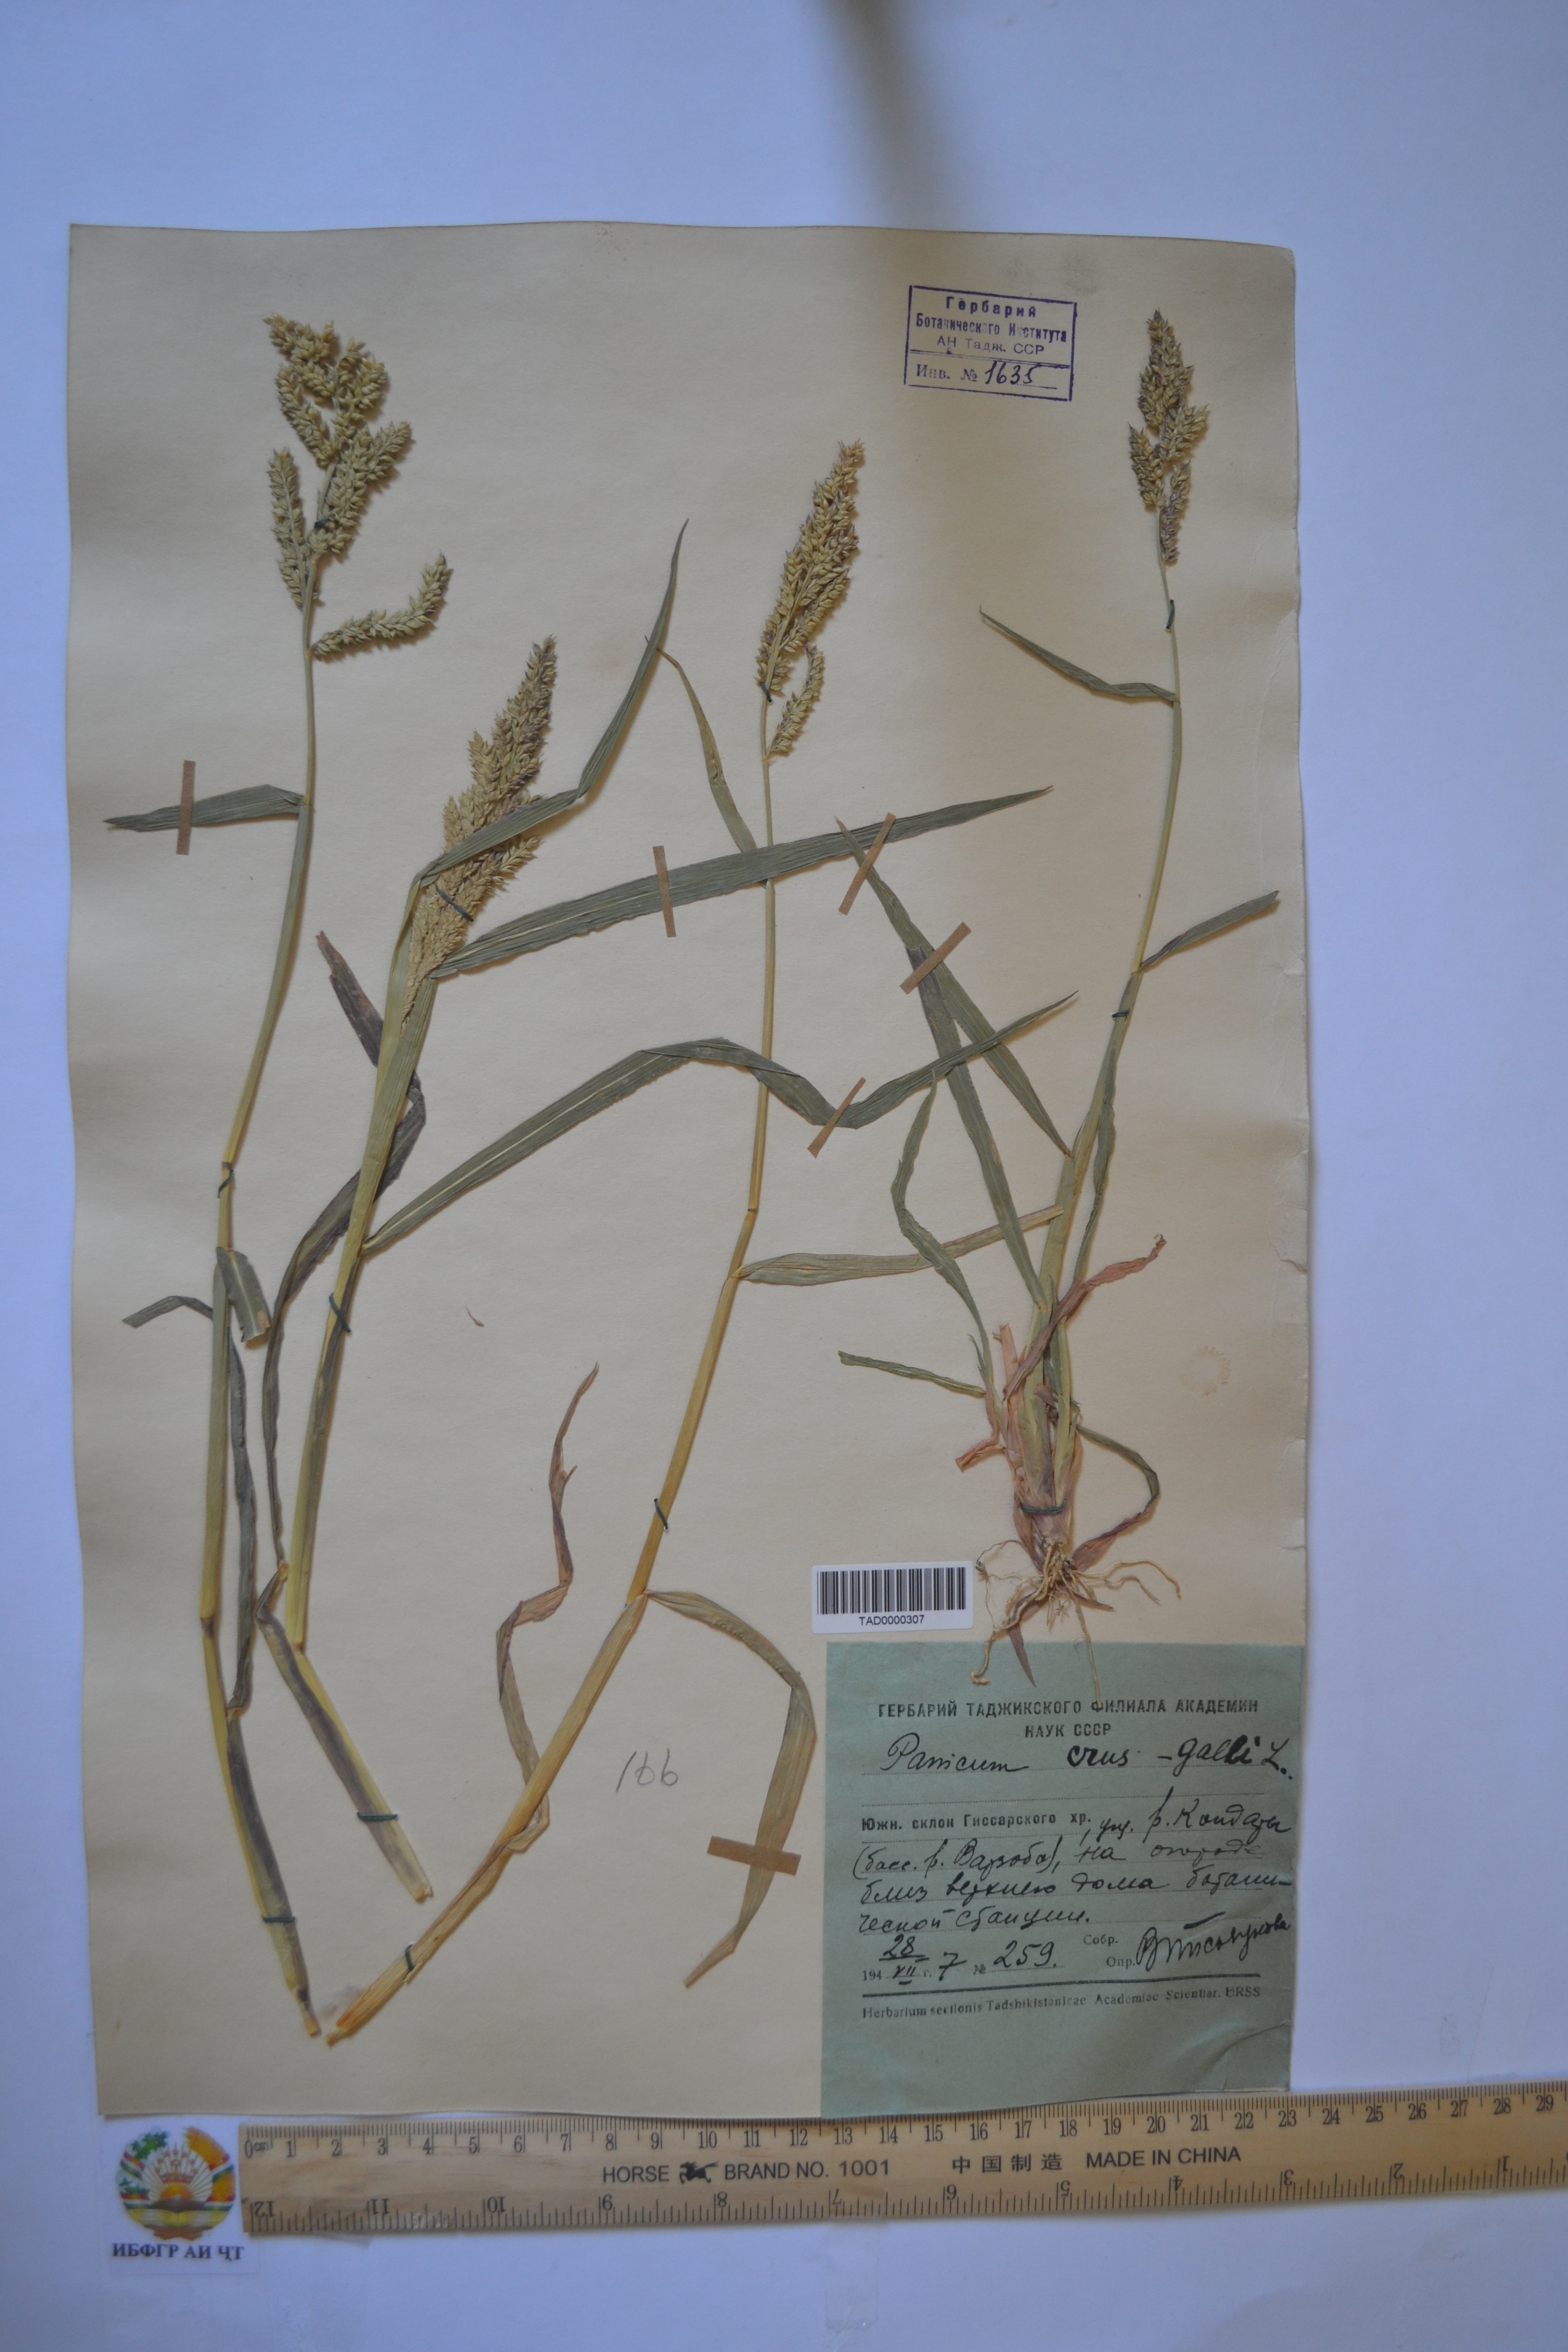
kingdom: Plantae
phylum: Tracheophyta
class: Liliopsida
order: Poales
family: Poaceae
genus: Echinochloa
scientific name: Echinochloa crus-galli
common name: Cockspur
